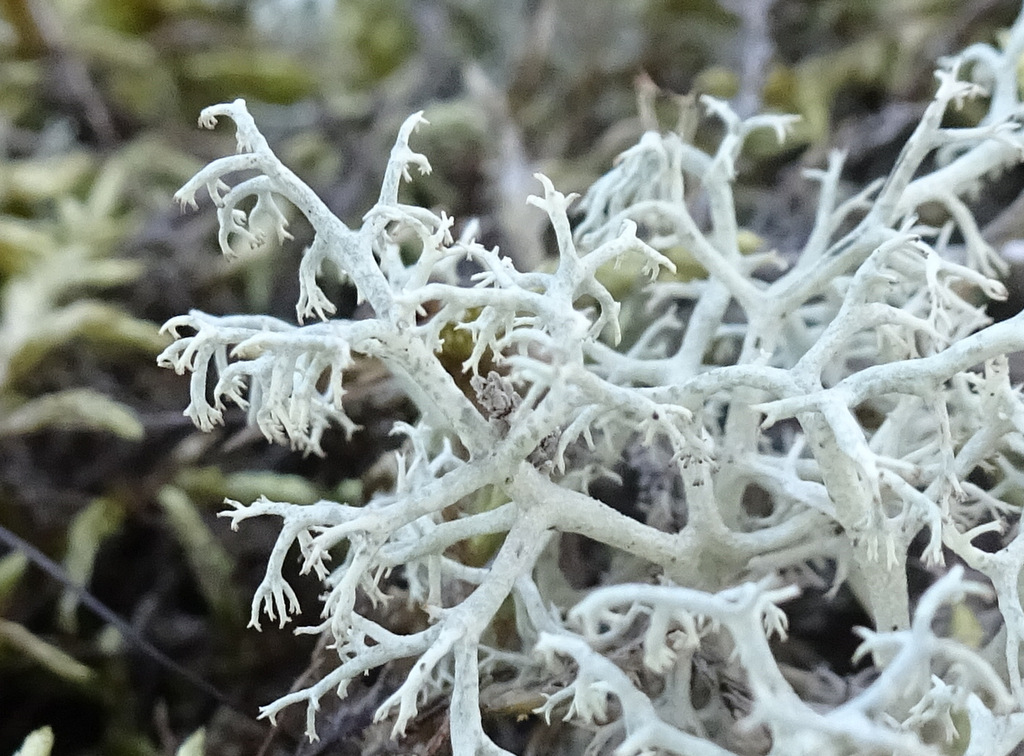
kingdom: Fungi
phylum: Ascomycota
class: Lecanoromycetes
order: Lecanorales
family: Cladoniaceae
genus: Cladonia
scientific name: Cladonia portentosa
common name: hede-rensdyrlav
